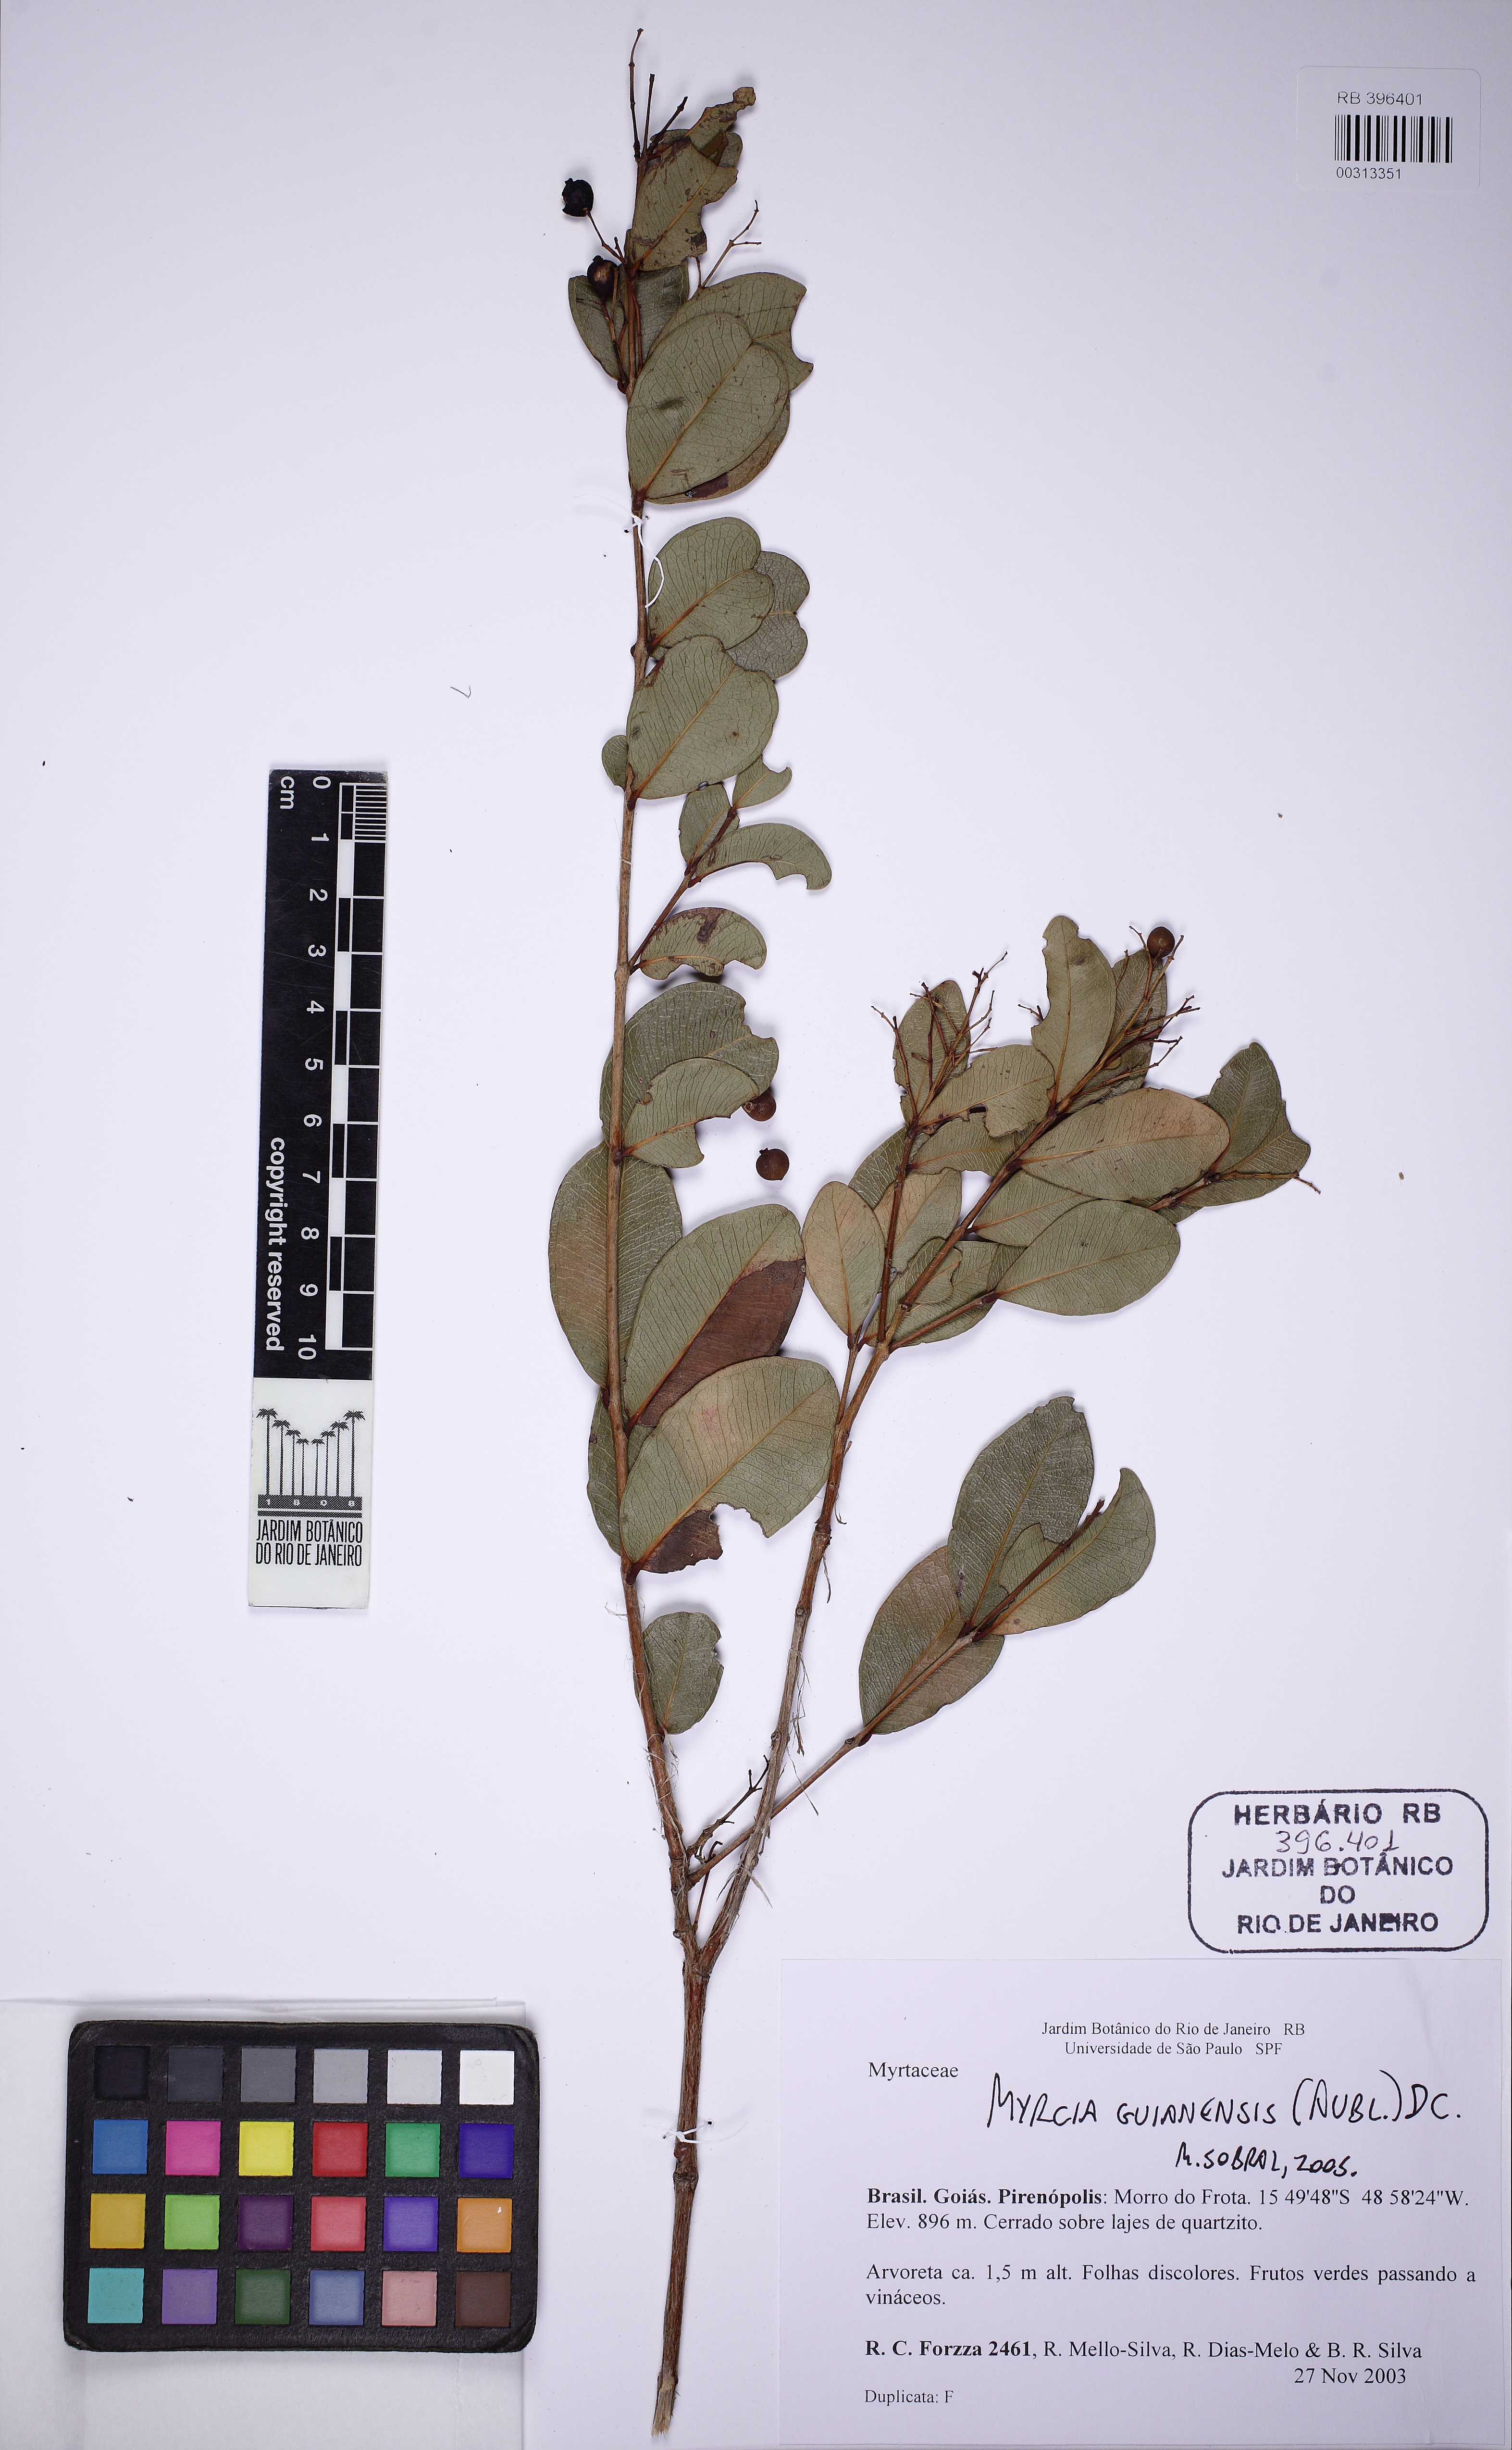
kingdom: Plantae
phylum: Tracheophyta
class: Magnoliopsida
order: Myrtales
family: Myrtaceae
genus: Myrcia
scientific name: Myrcia rubella
